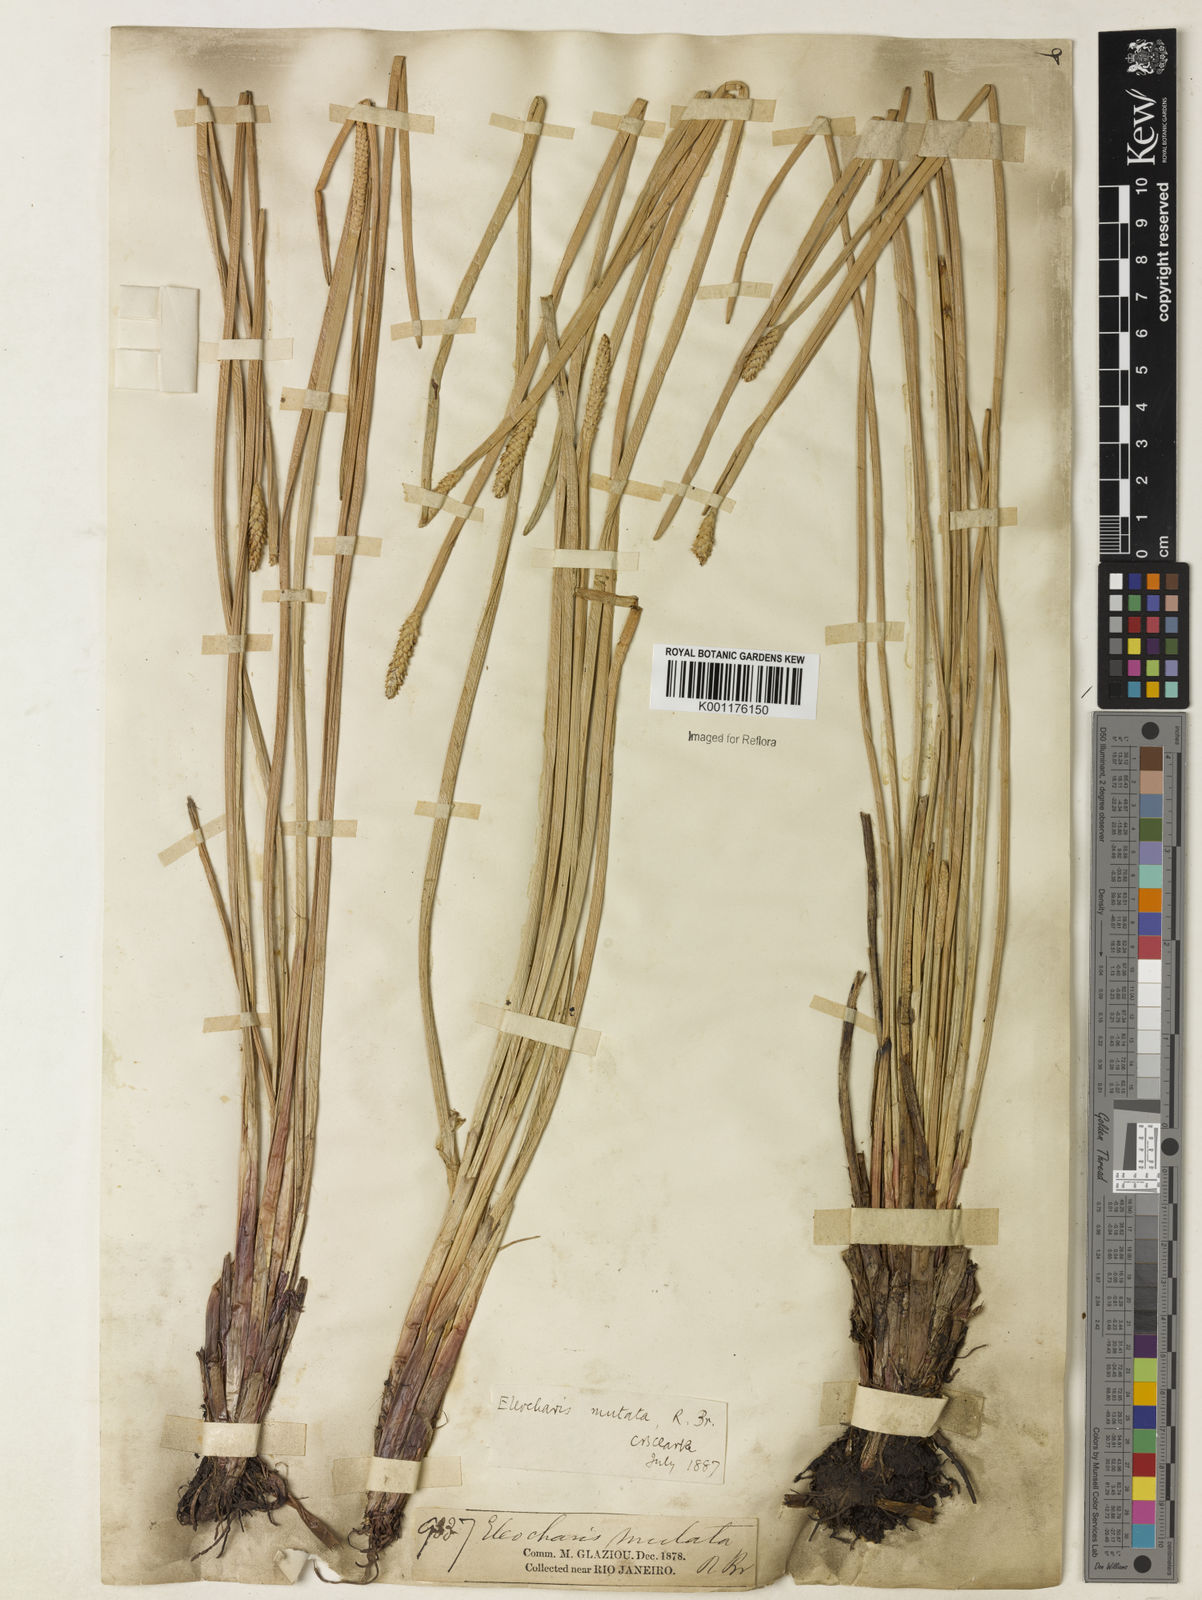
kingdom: Plantae
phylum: Tracheophyta
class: Liliopsida
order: Poales
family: Cyperaceae
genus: Eleocharis
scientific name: Eleocharis mutata
